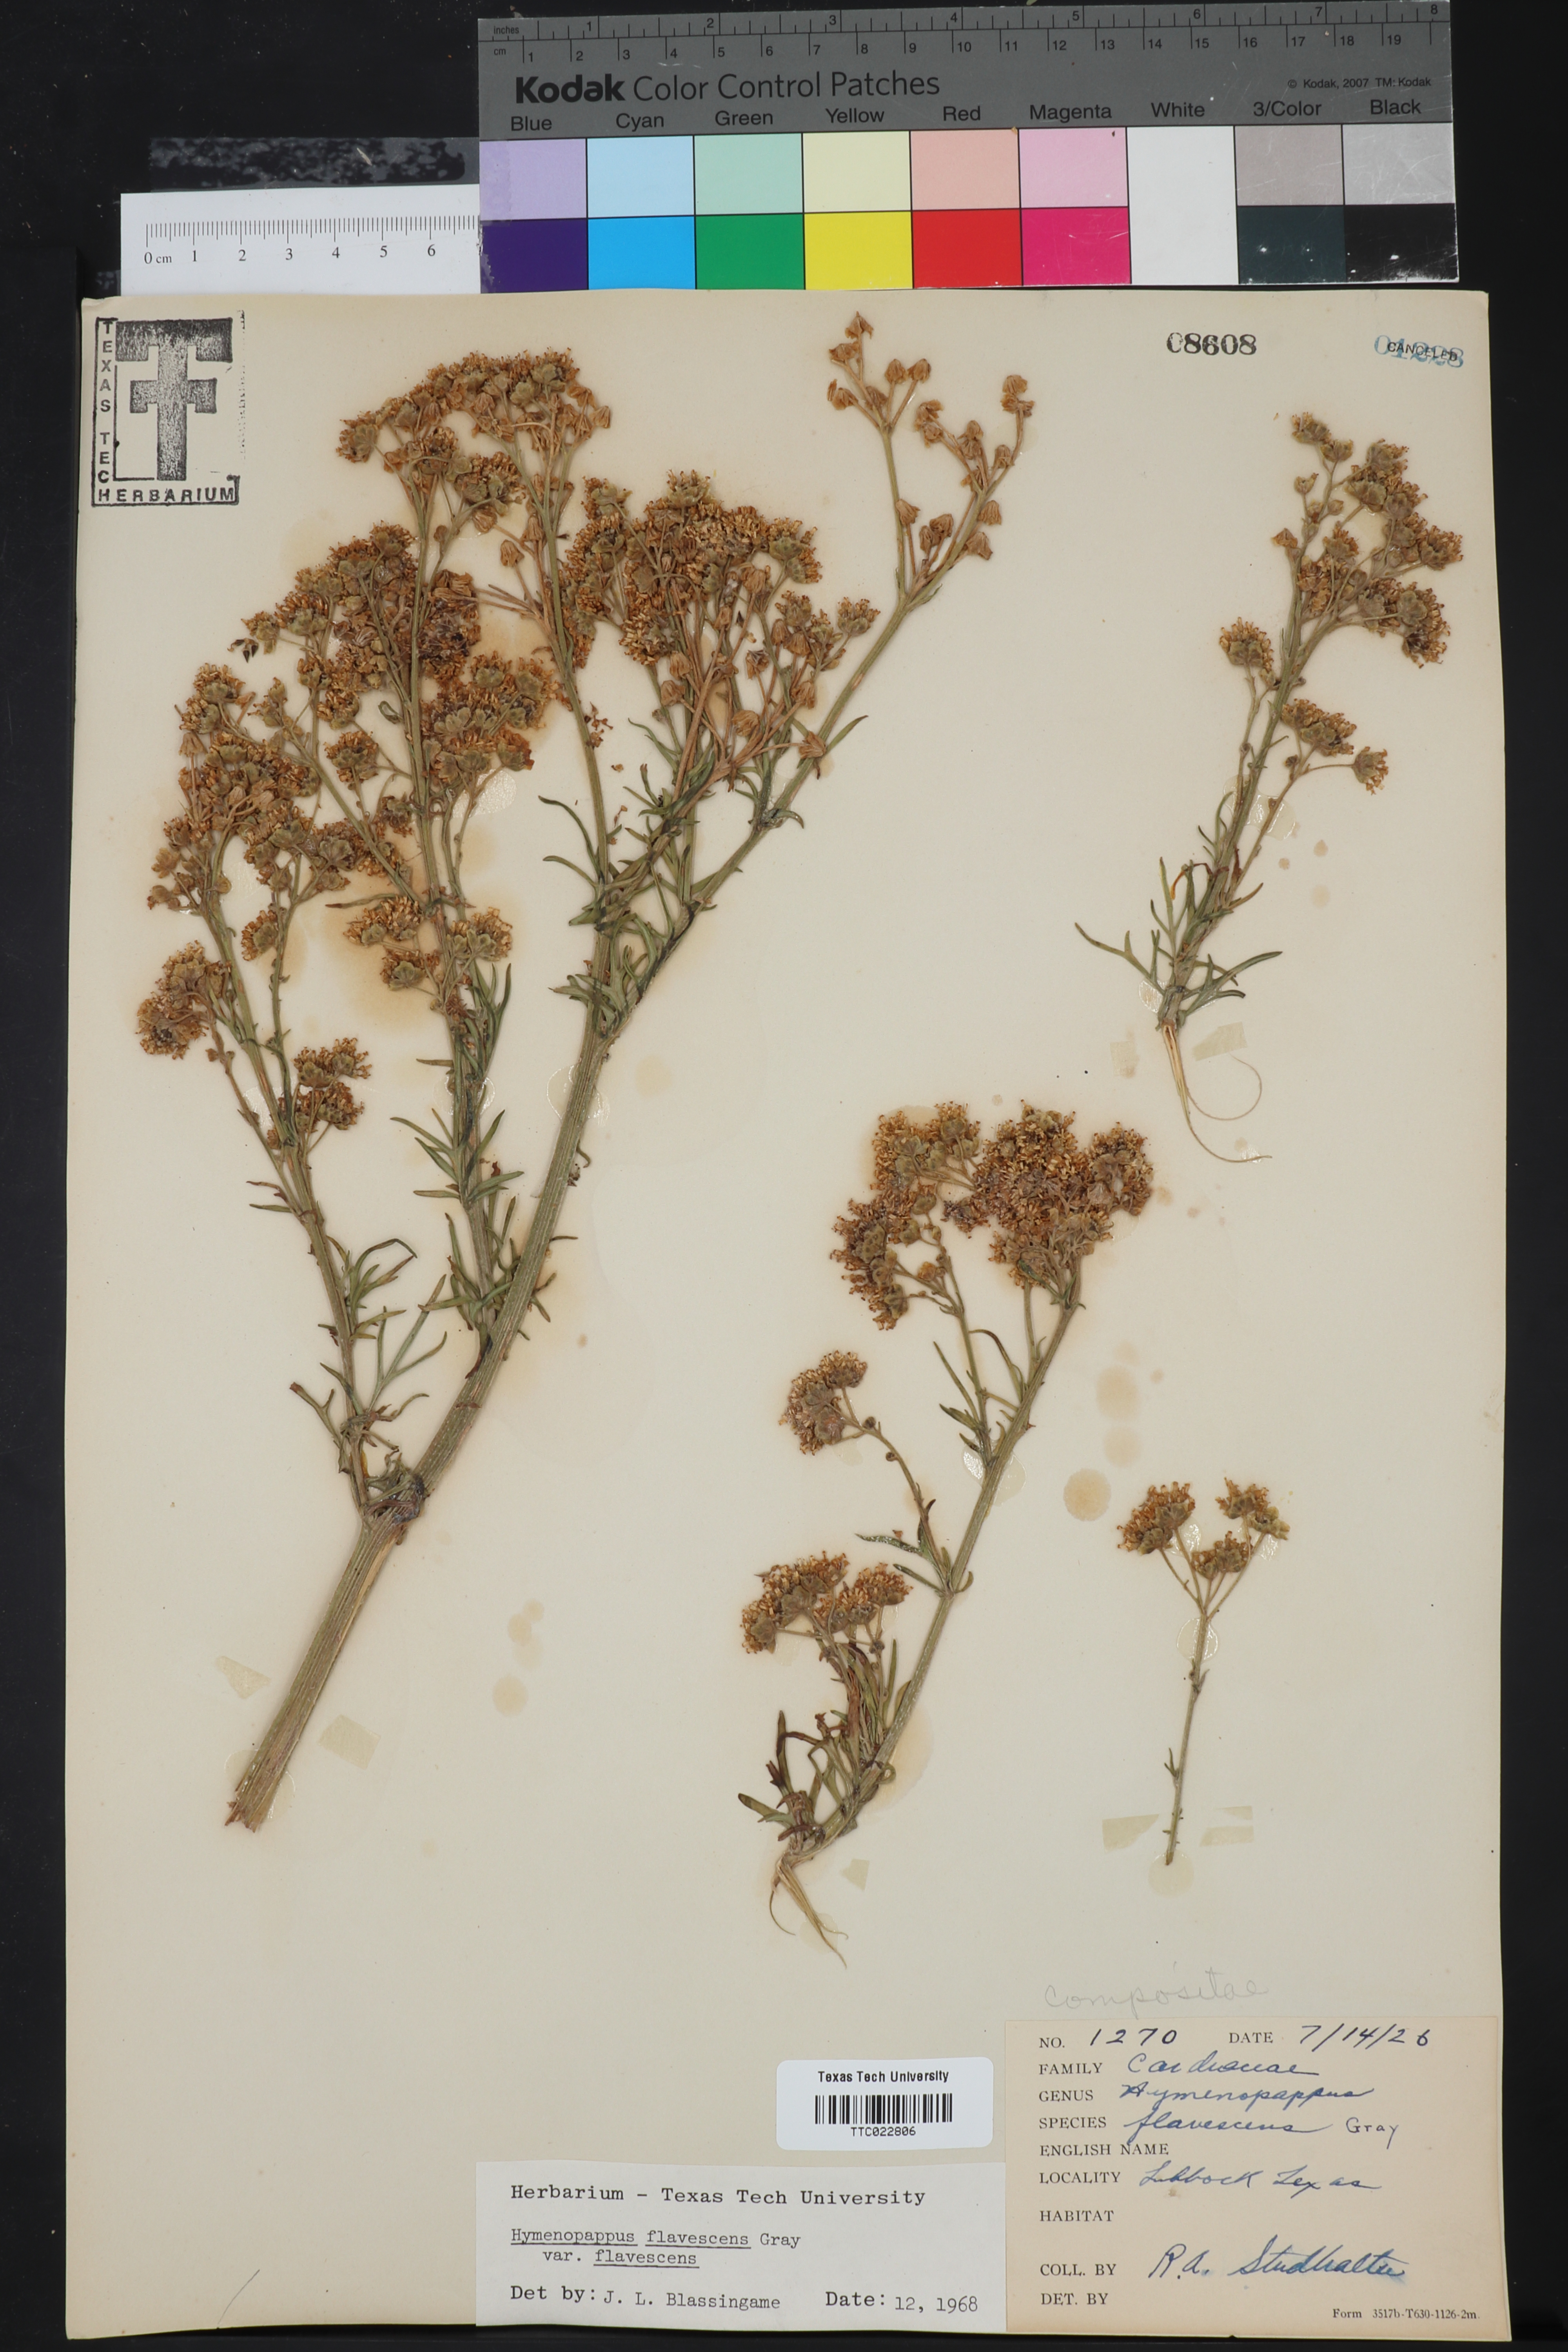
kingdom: Plantae
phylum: Tracheophyta
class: Magnoliopsida
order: Asterales
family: Asteraceae
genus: Hymenopappus
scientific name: Hymenopappus flavescens
